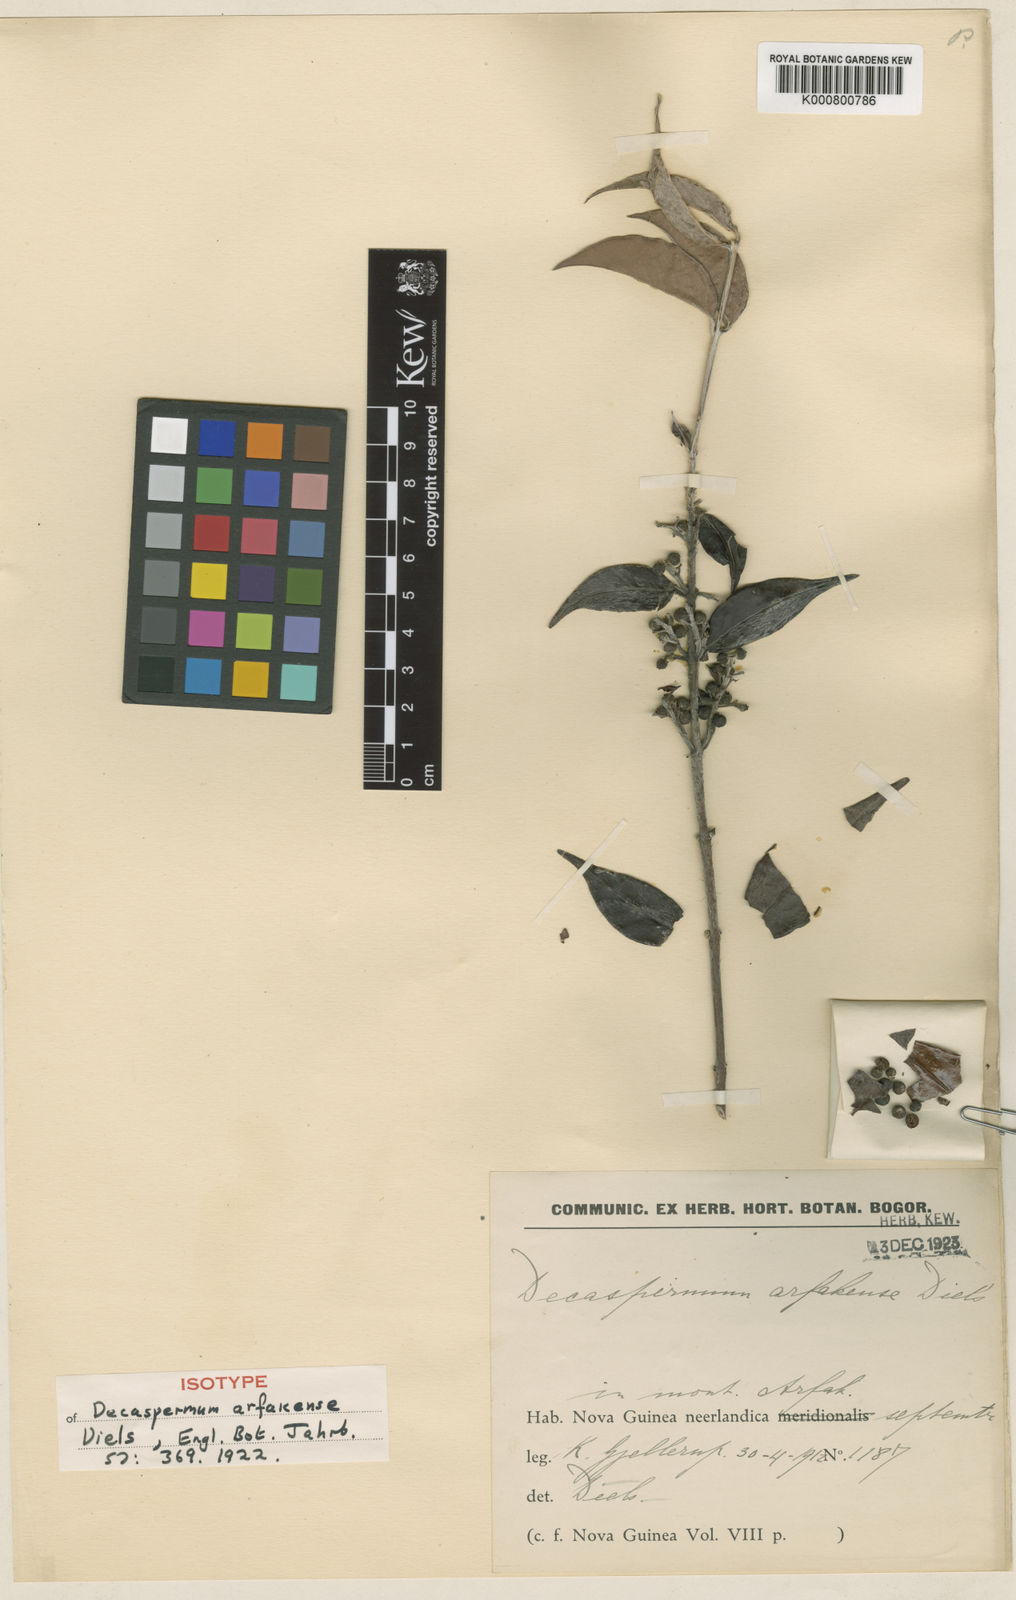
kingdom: Plantae
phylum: Tracheophyta
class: Magnoliopsida
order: Myrtales
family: Myrtaceae
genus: Decaspermum
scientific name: Decaspermum arfakense
